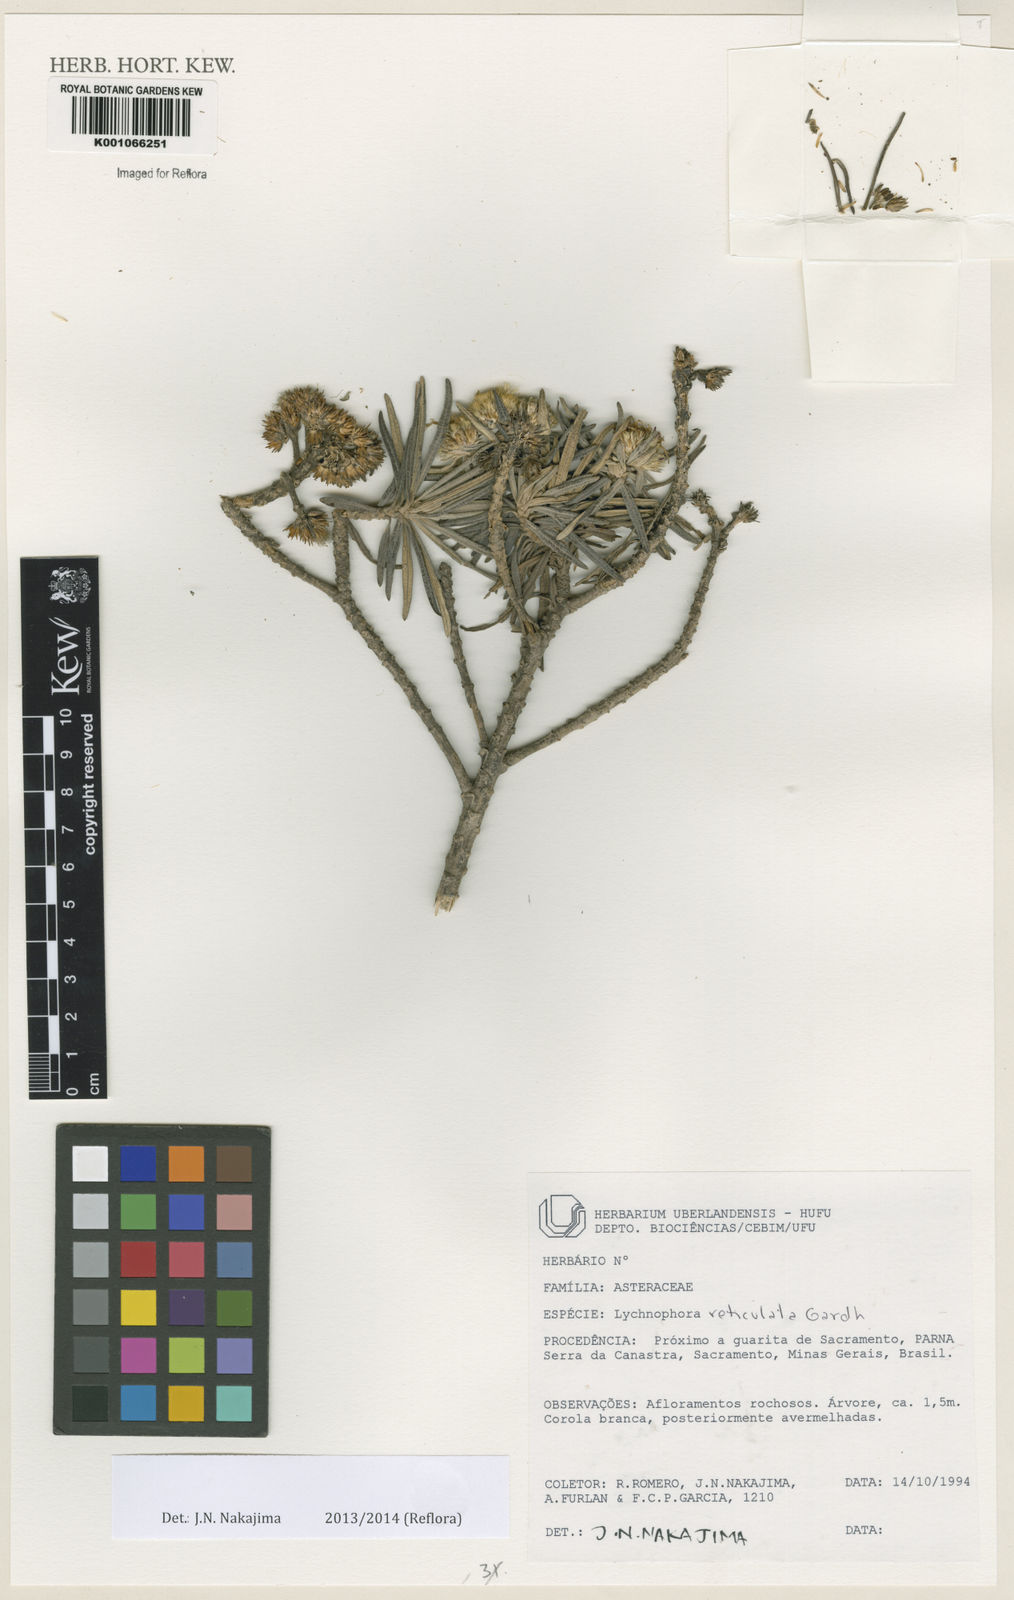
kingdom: Plantae
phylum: Tracheophyta
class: Magnoliopsida
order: Asterales
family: Asteraceae
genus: Eremanthus
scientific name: Eremanthus reticulatus
